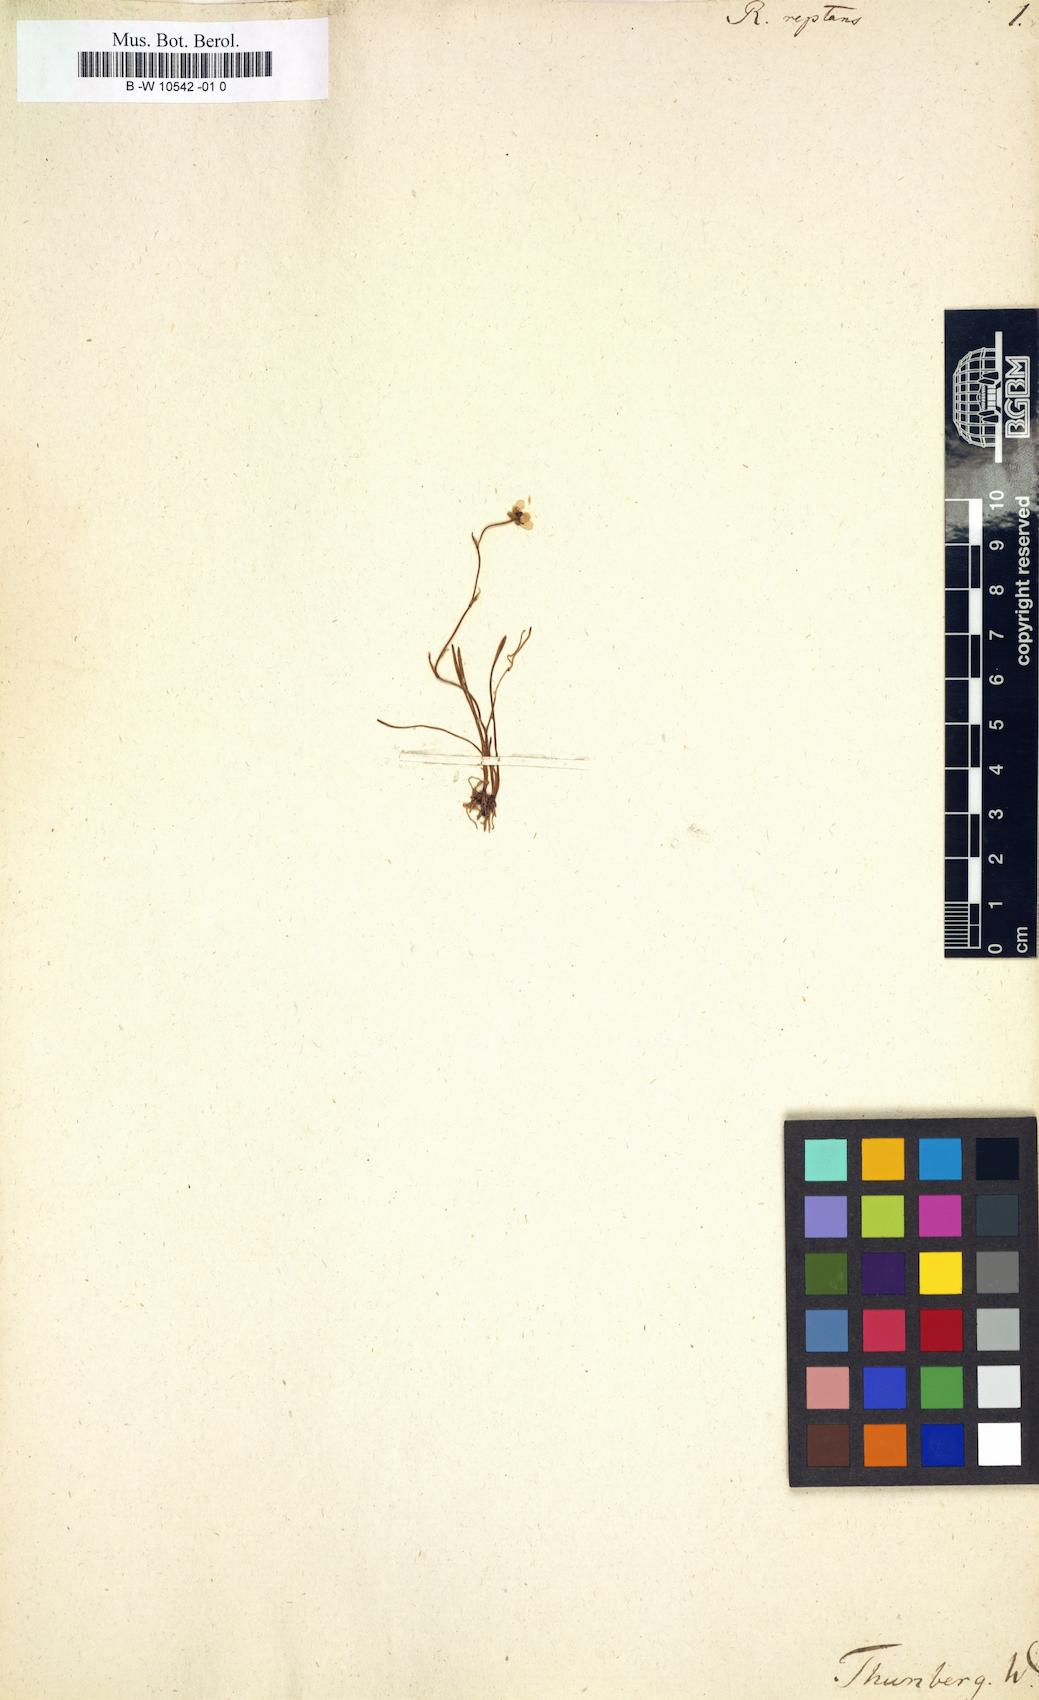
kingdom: Plantae
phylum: Tracheophyta
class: Magnoliopsida
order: Ranunculales
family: Ranunculaceae
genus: Ranunculus
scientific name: Ranunculus reptans
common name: Creeping spearwort
